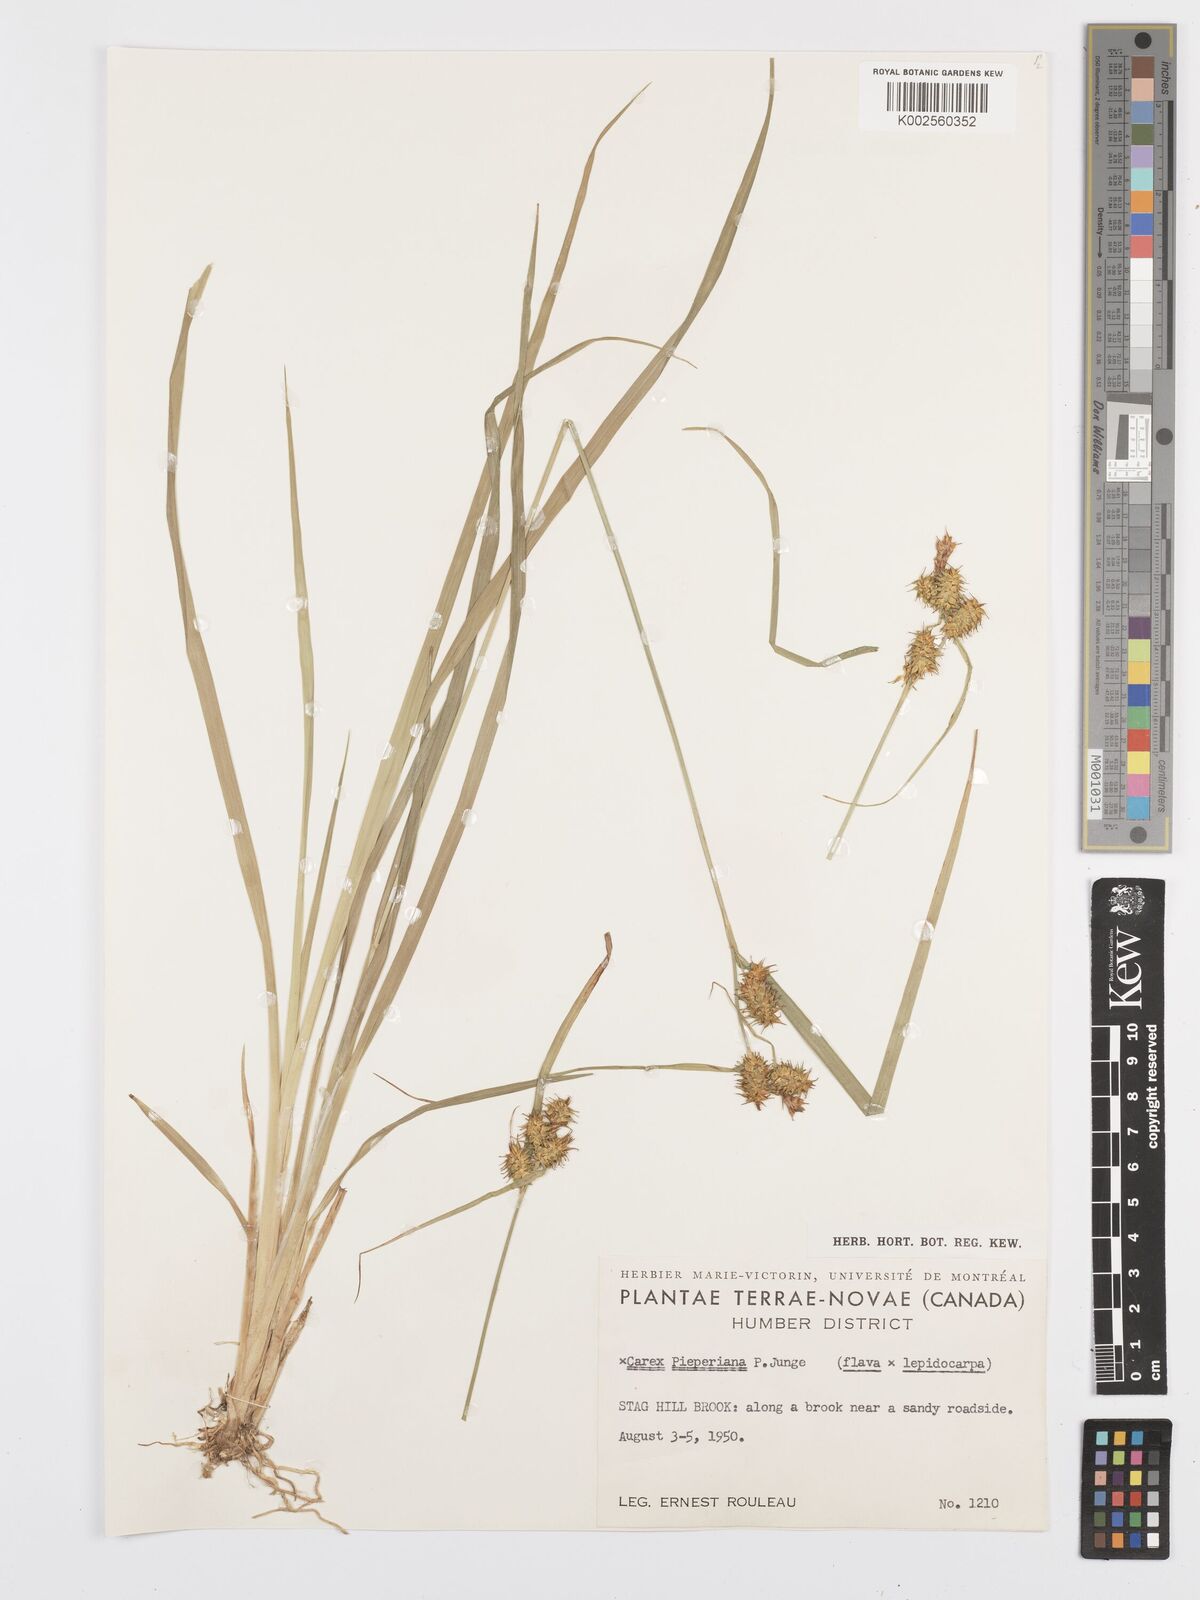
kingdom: Plantae
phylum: Tracheophyta
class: Liliopsida
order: Poales
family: Cyperaceae
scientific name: Cyperaceae
